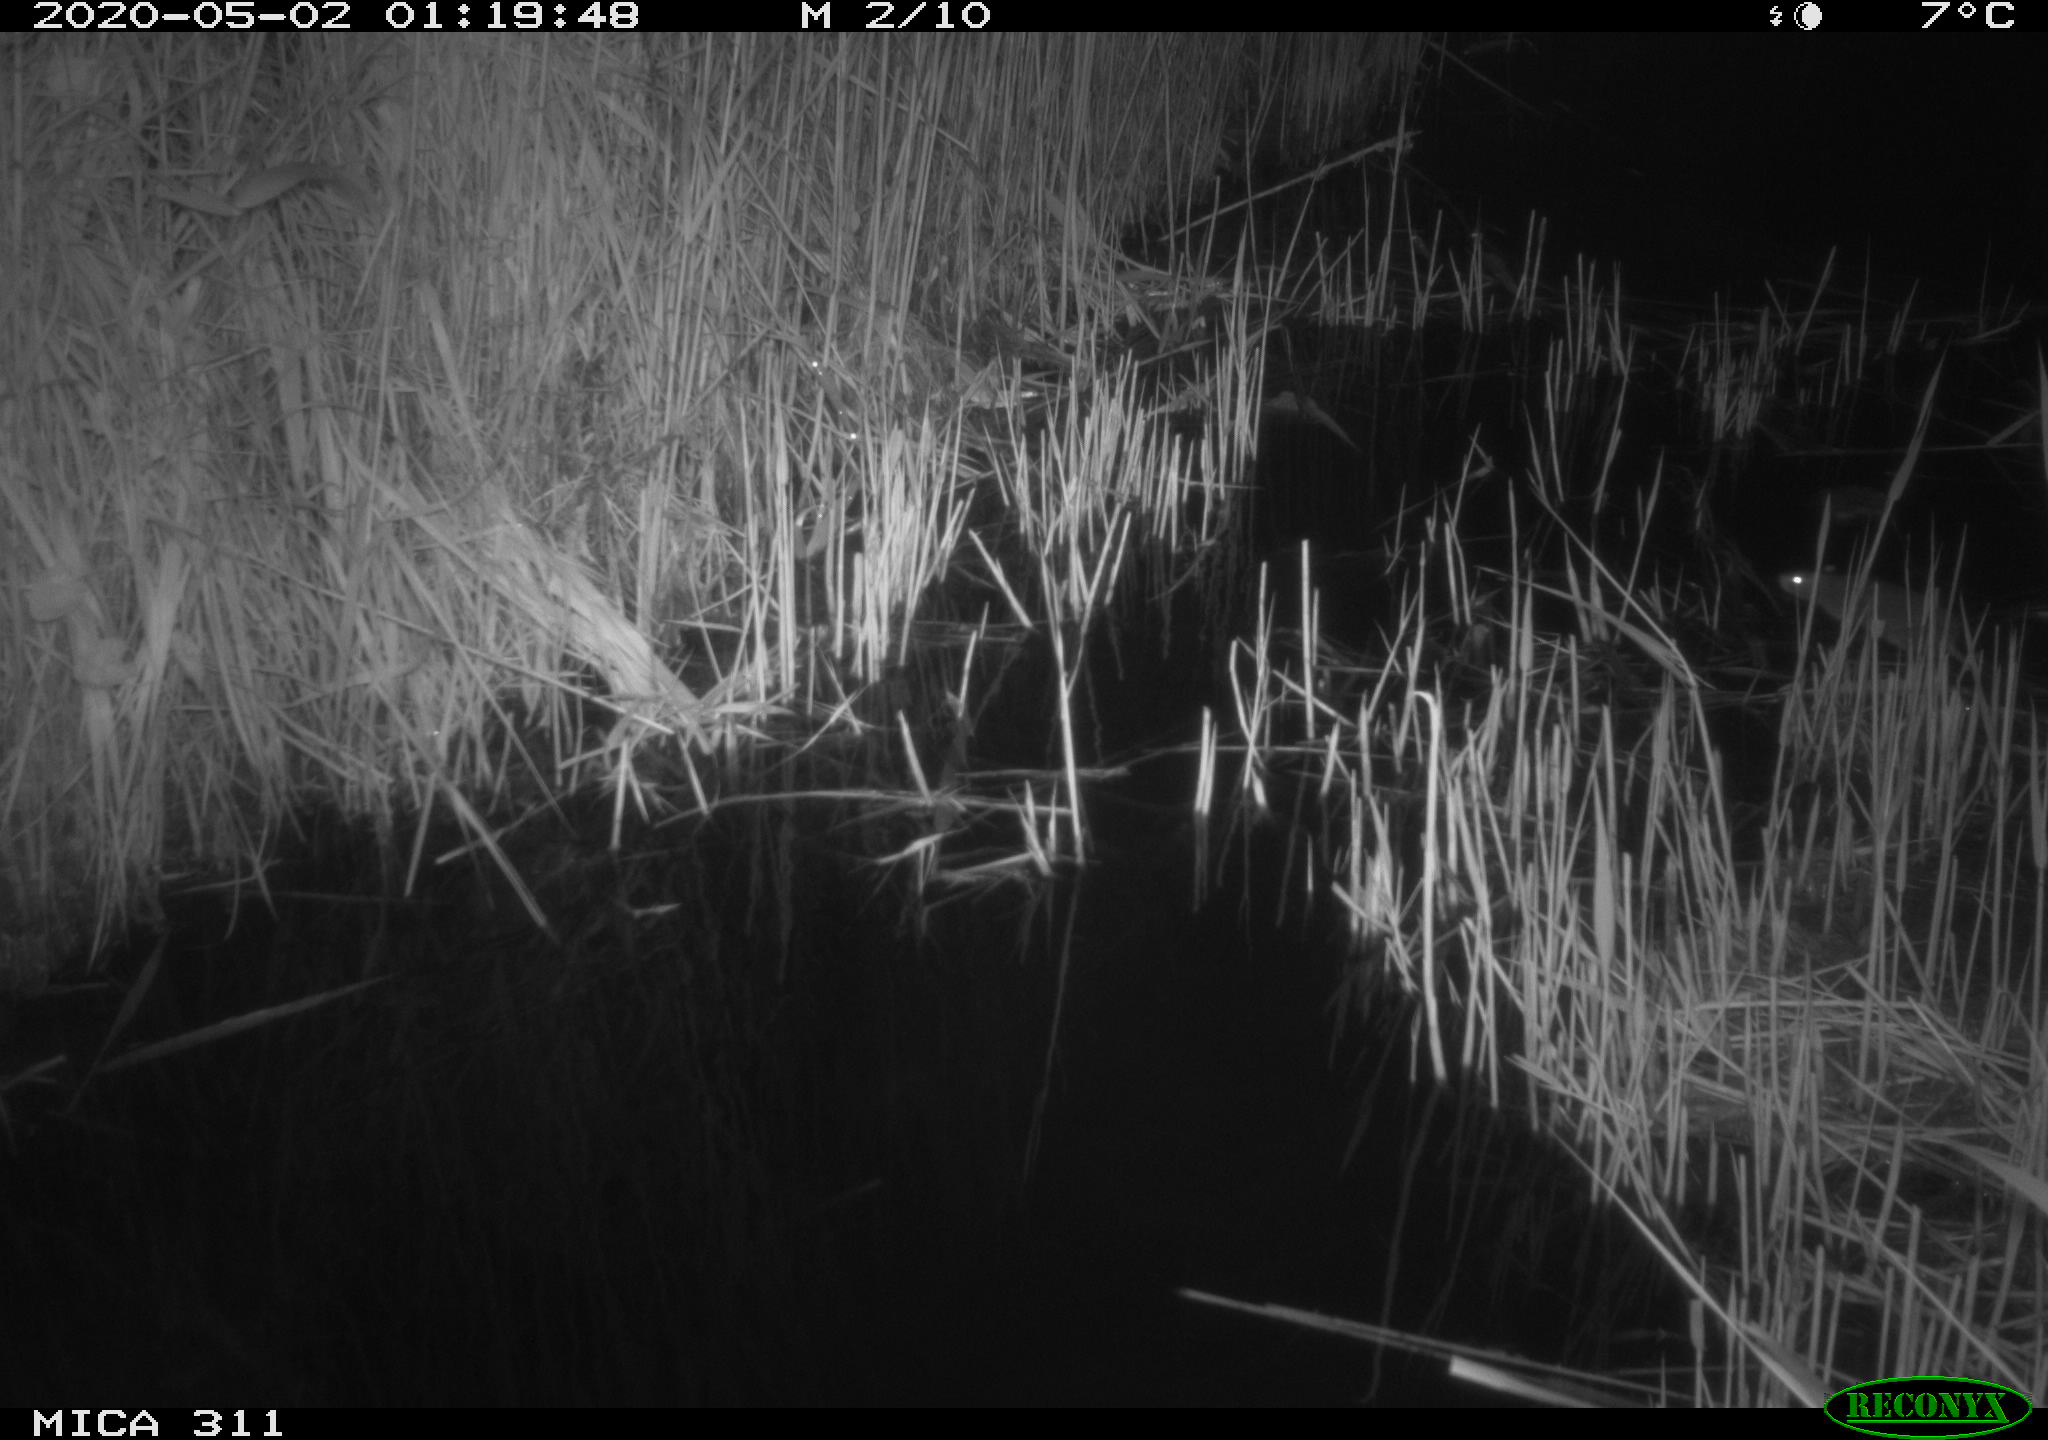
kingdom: Animalia
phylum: Chordata
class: Mammalia
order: Rodentia
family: Muridae
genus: Rattus
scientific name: Rattus norvegicus
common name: Brown rat
